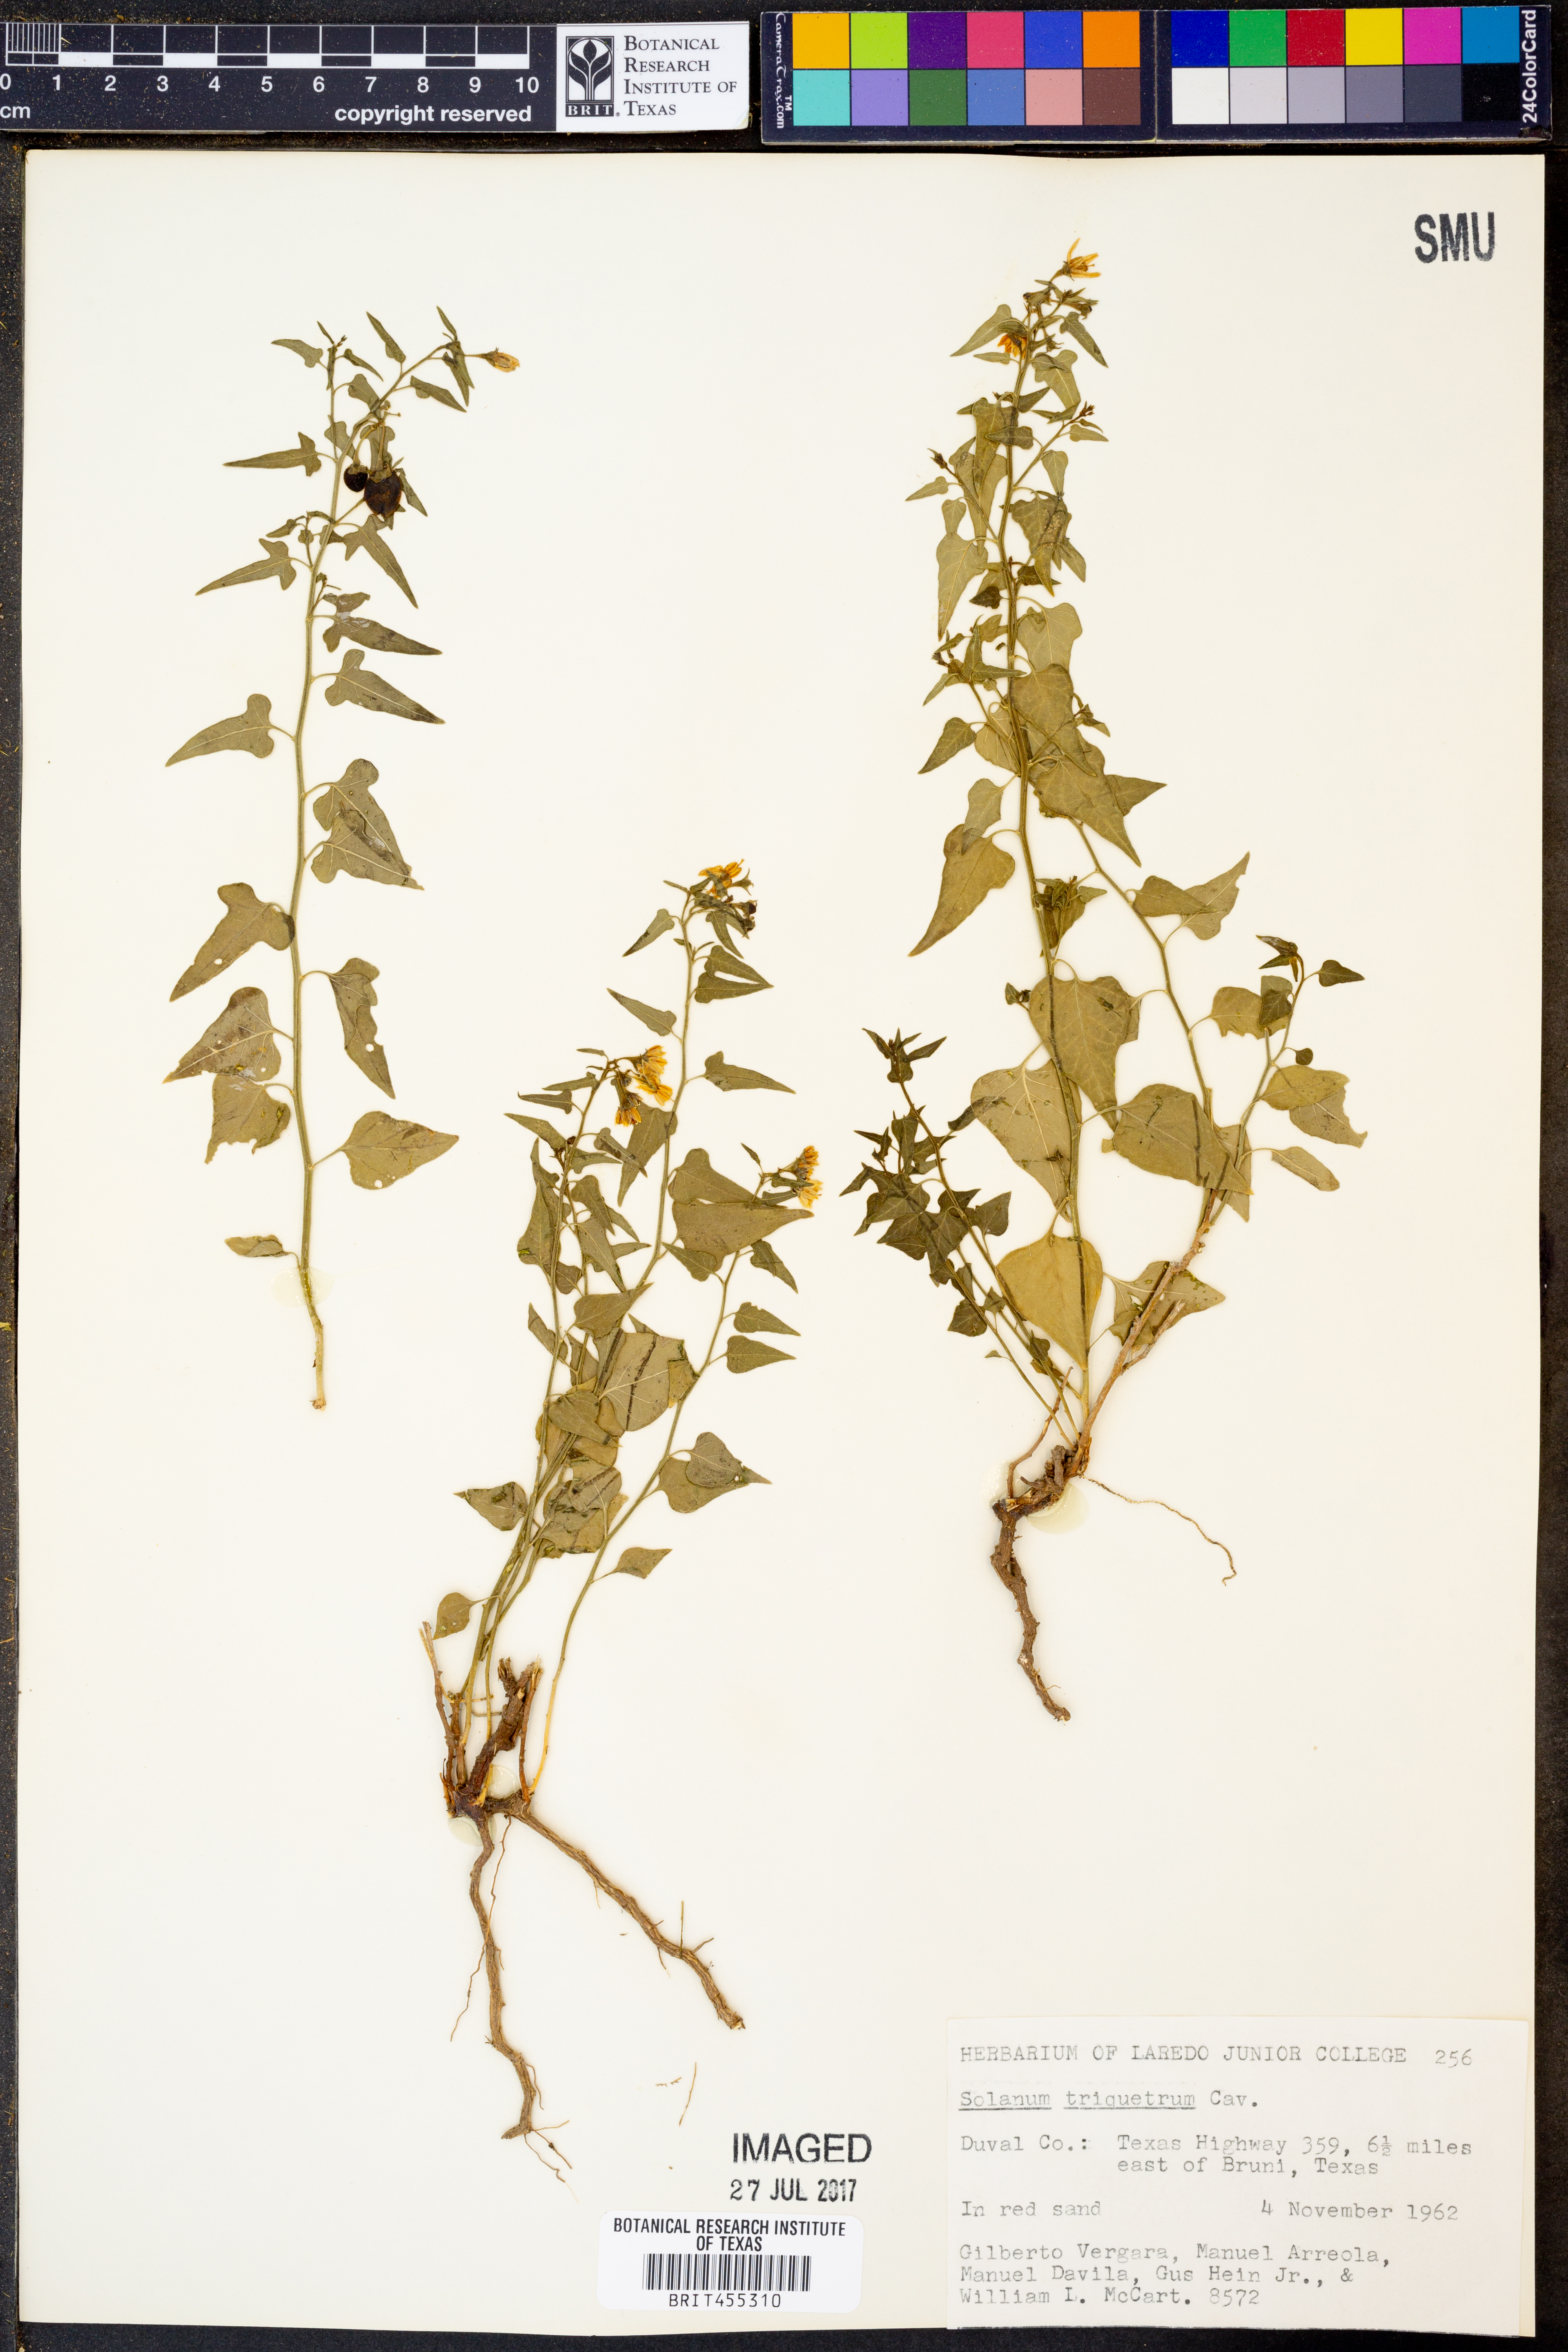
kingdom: Plantae
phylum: Tracheophyta
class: Magnoliopsida
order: Solanales
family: Solanaceae
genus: Solanum
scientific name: Solanum triquetrum
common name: Texas nightshade
